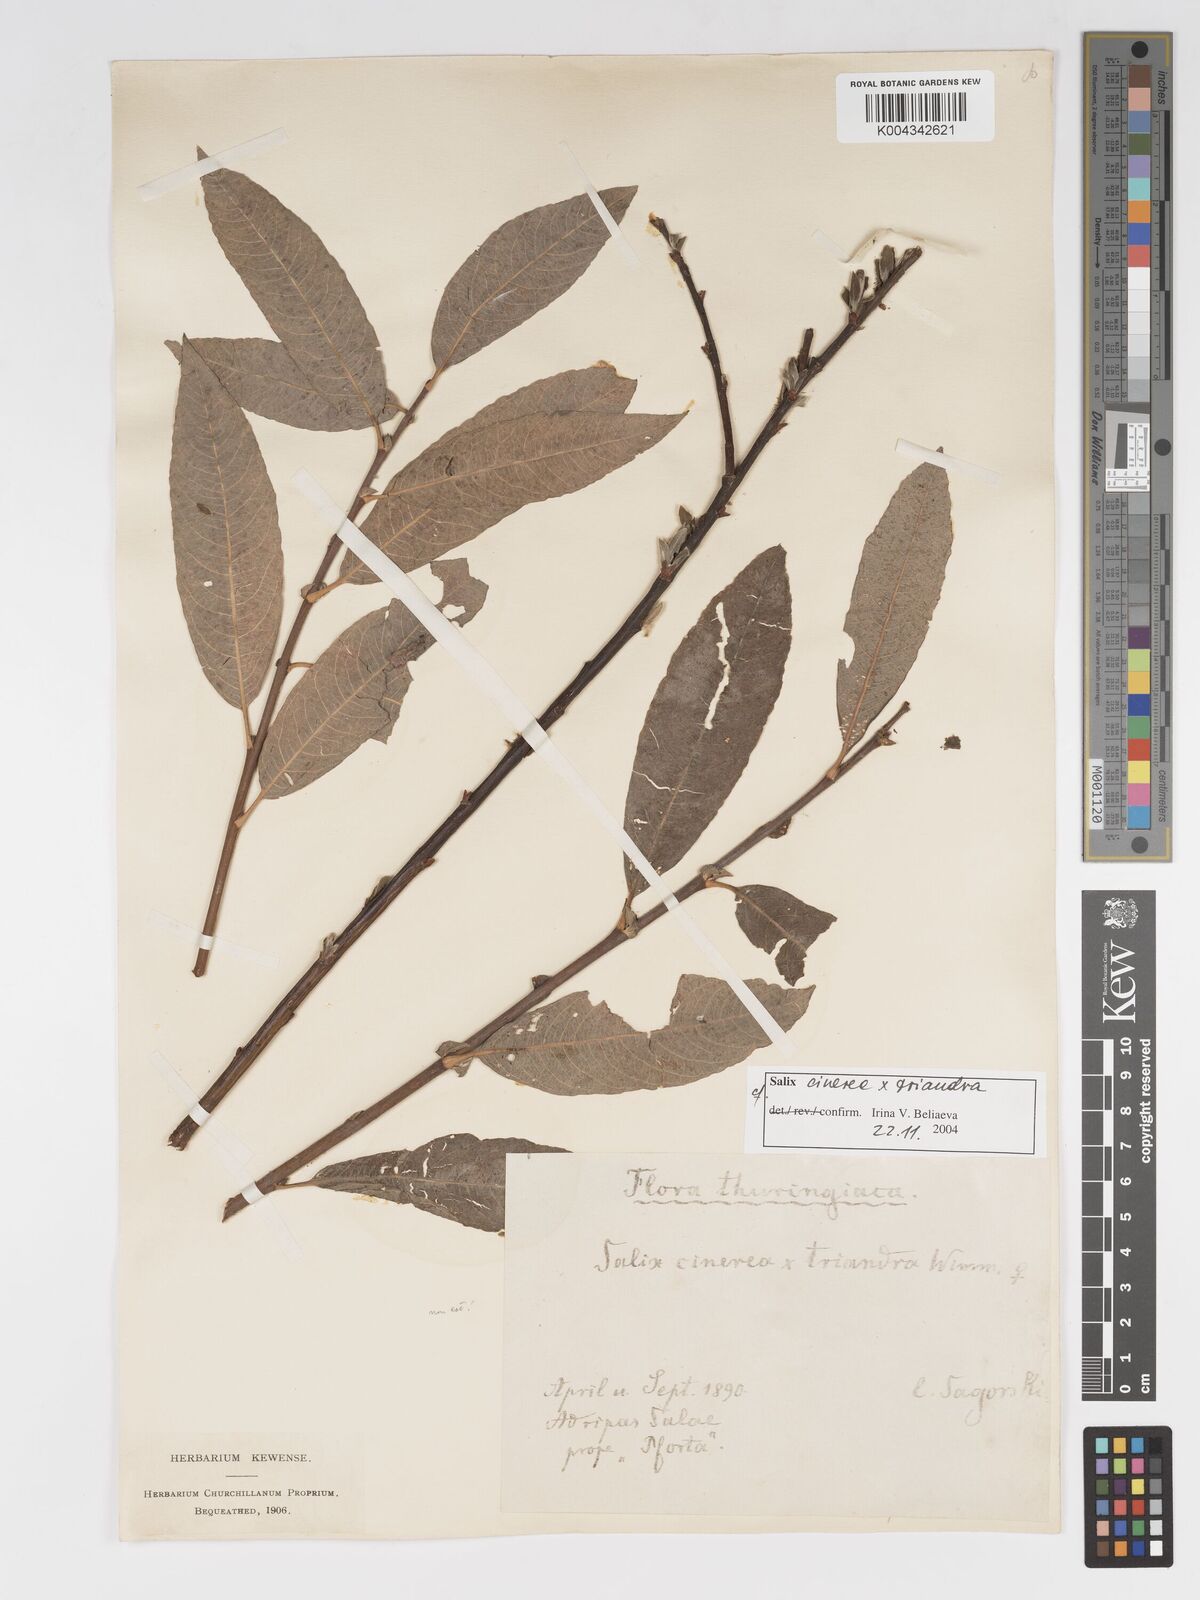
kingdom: Plantae
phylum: Tracheophyta
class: Magnoliopsida
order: Malpighiales
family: Salicaceae
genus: Salix
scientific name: Salix cinerea
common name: Common sallow
